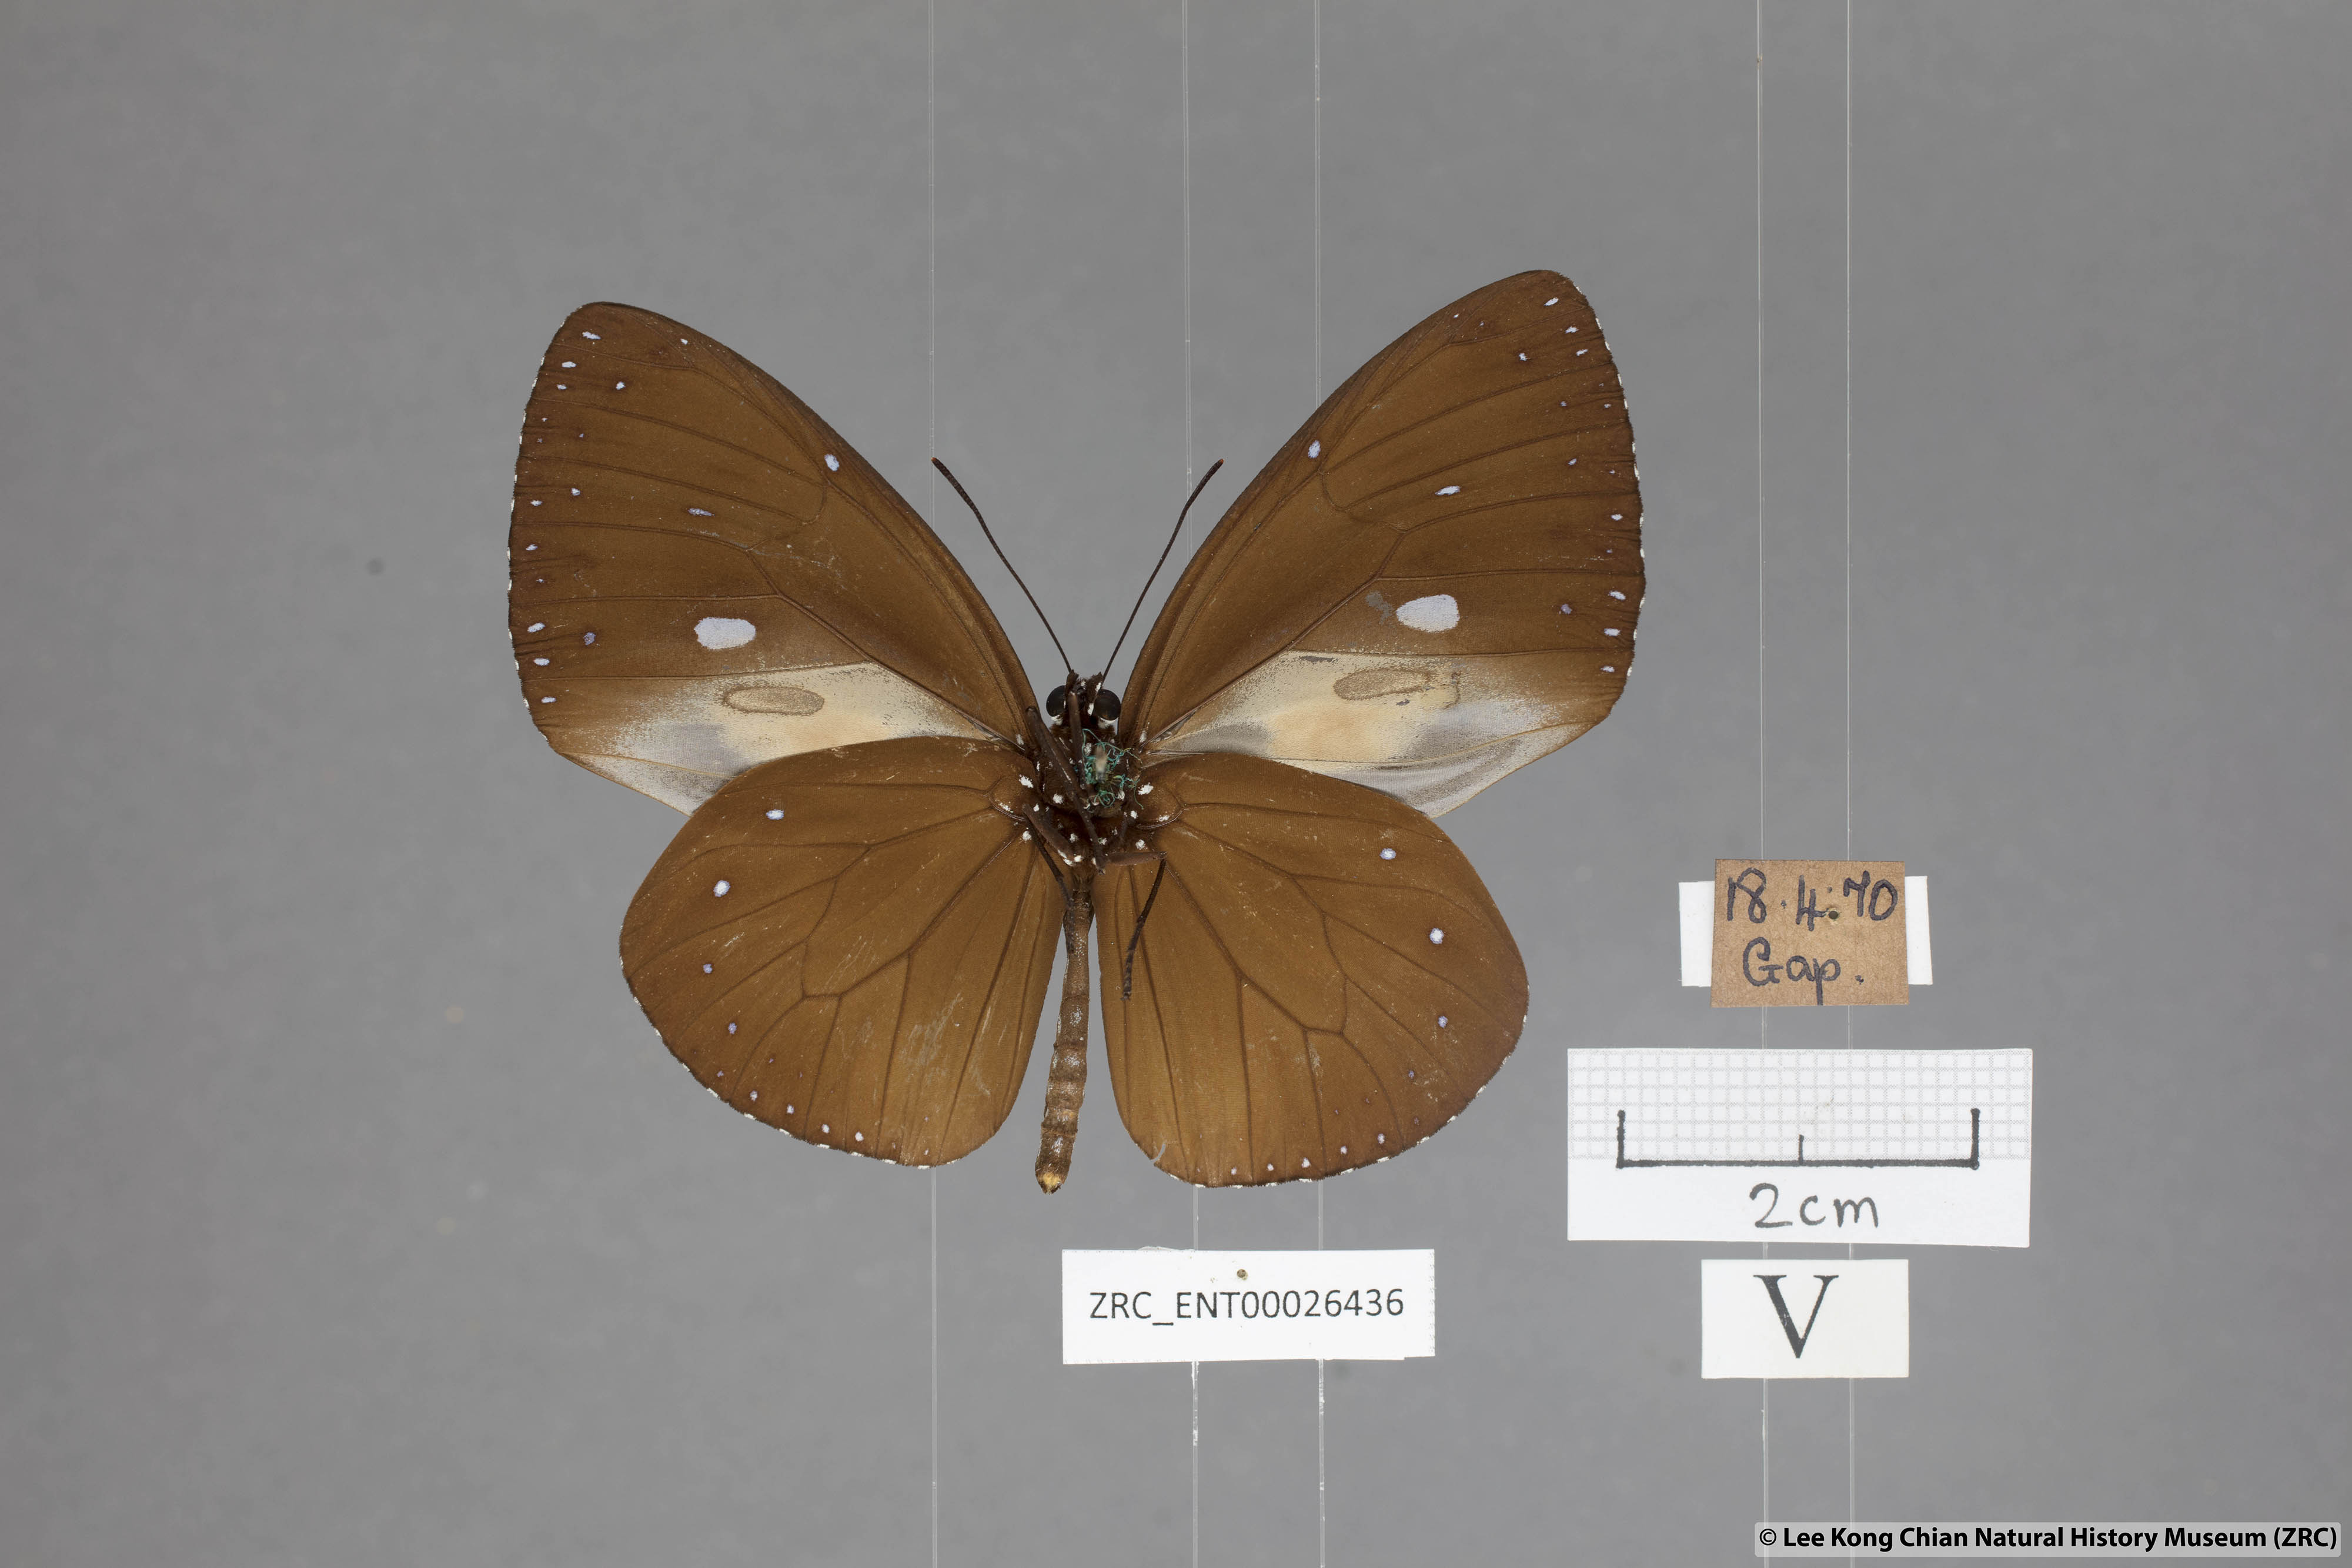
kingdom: Animalia
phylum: Arthropoda
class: Insecta
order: Lepidoptera
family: Nymphalidae
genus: Euploea
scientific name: Euploea eunice
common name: Blue-banded king crow butterfly
